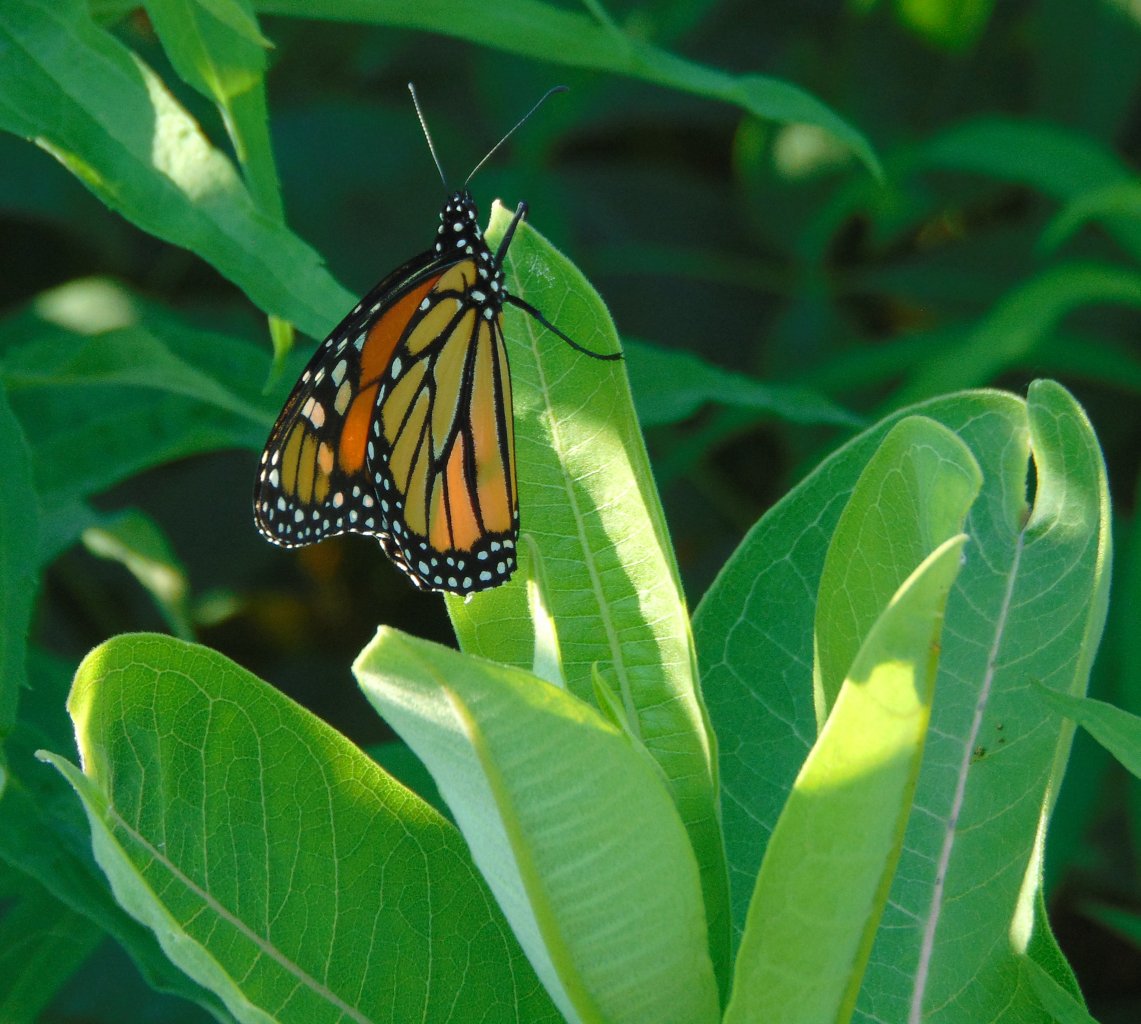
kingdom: Animalia
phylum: Arthropoda
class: Insecta
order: Lepidoptera
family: Nymphalidae
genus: Danaus
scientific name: Danaus plexippus
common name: Monarch
